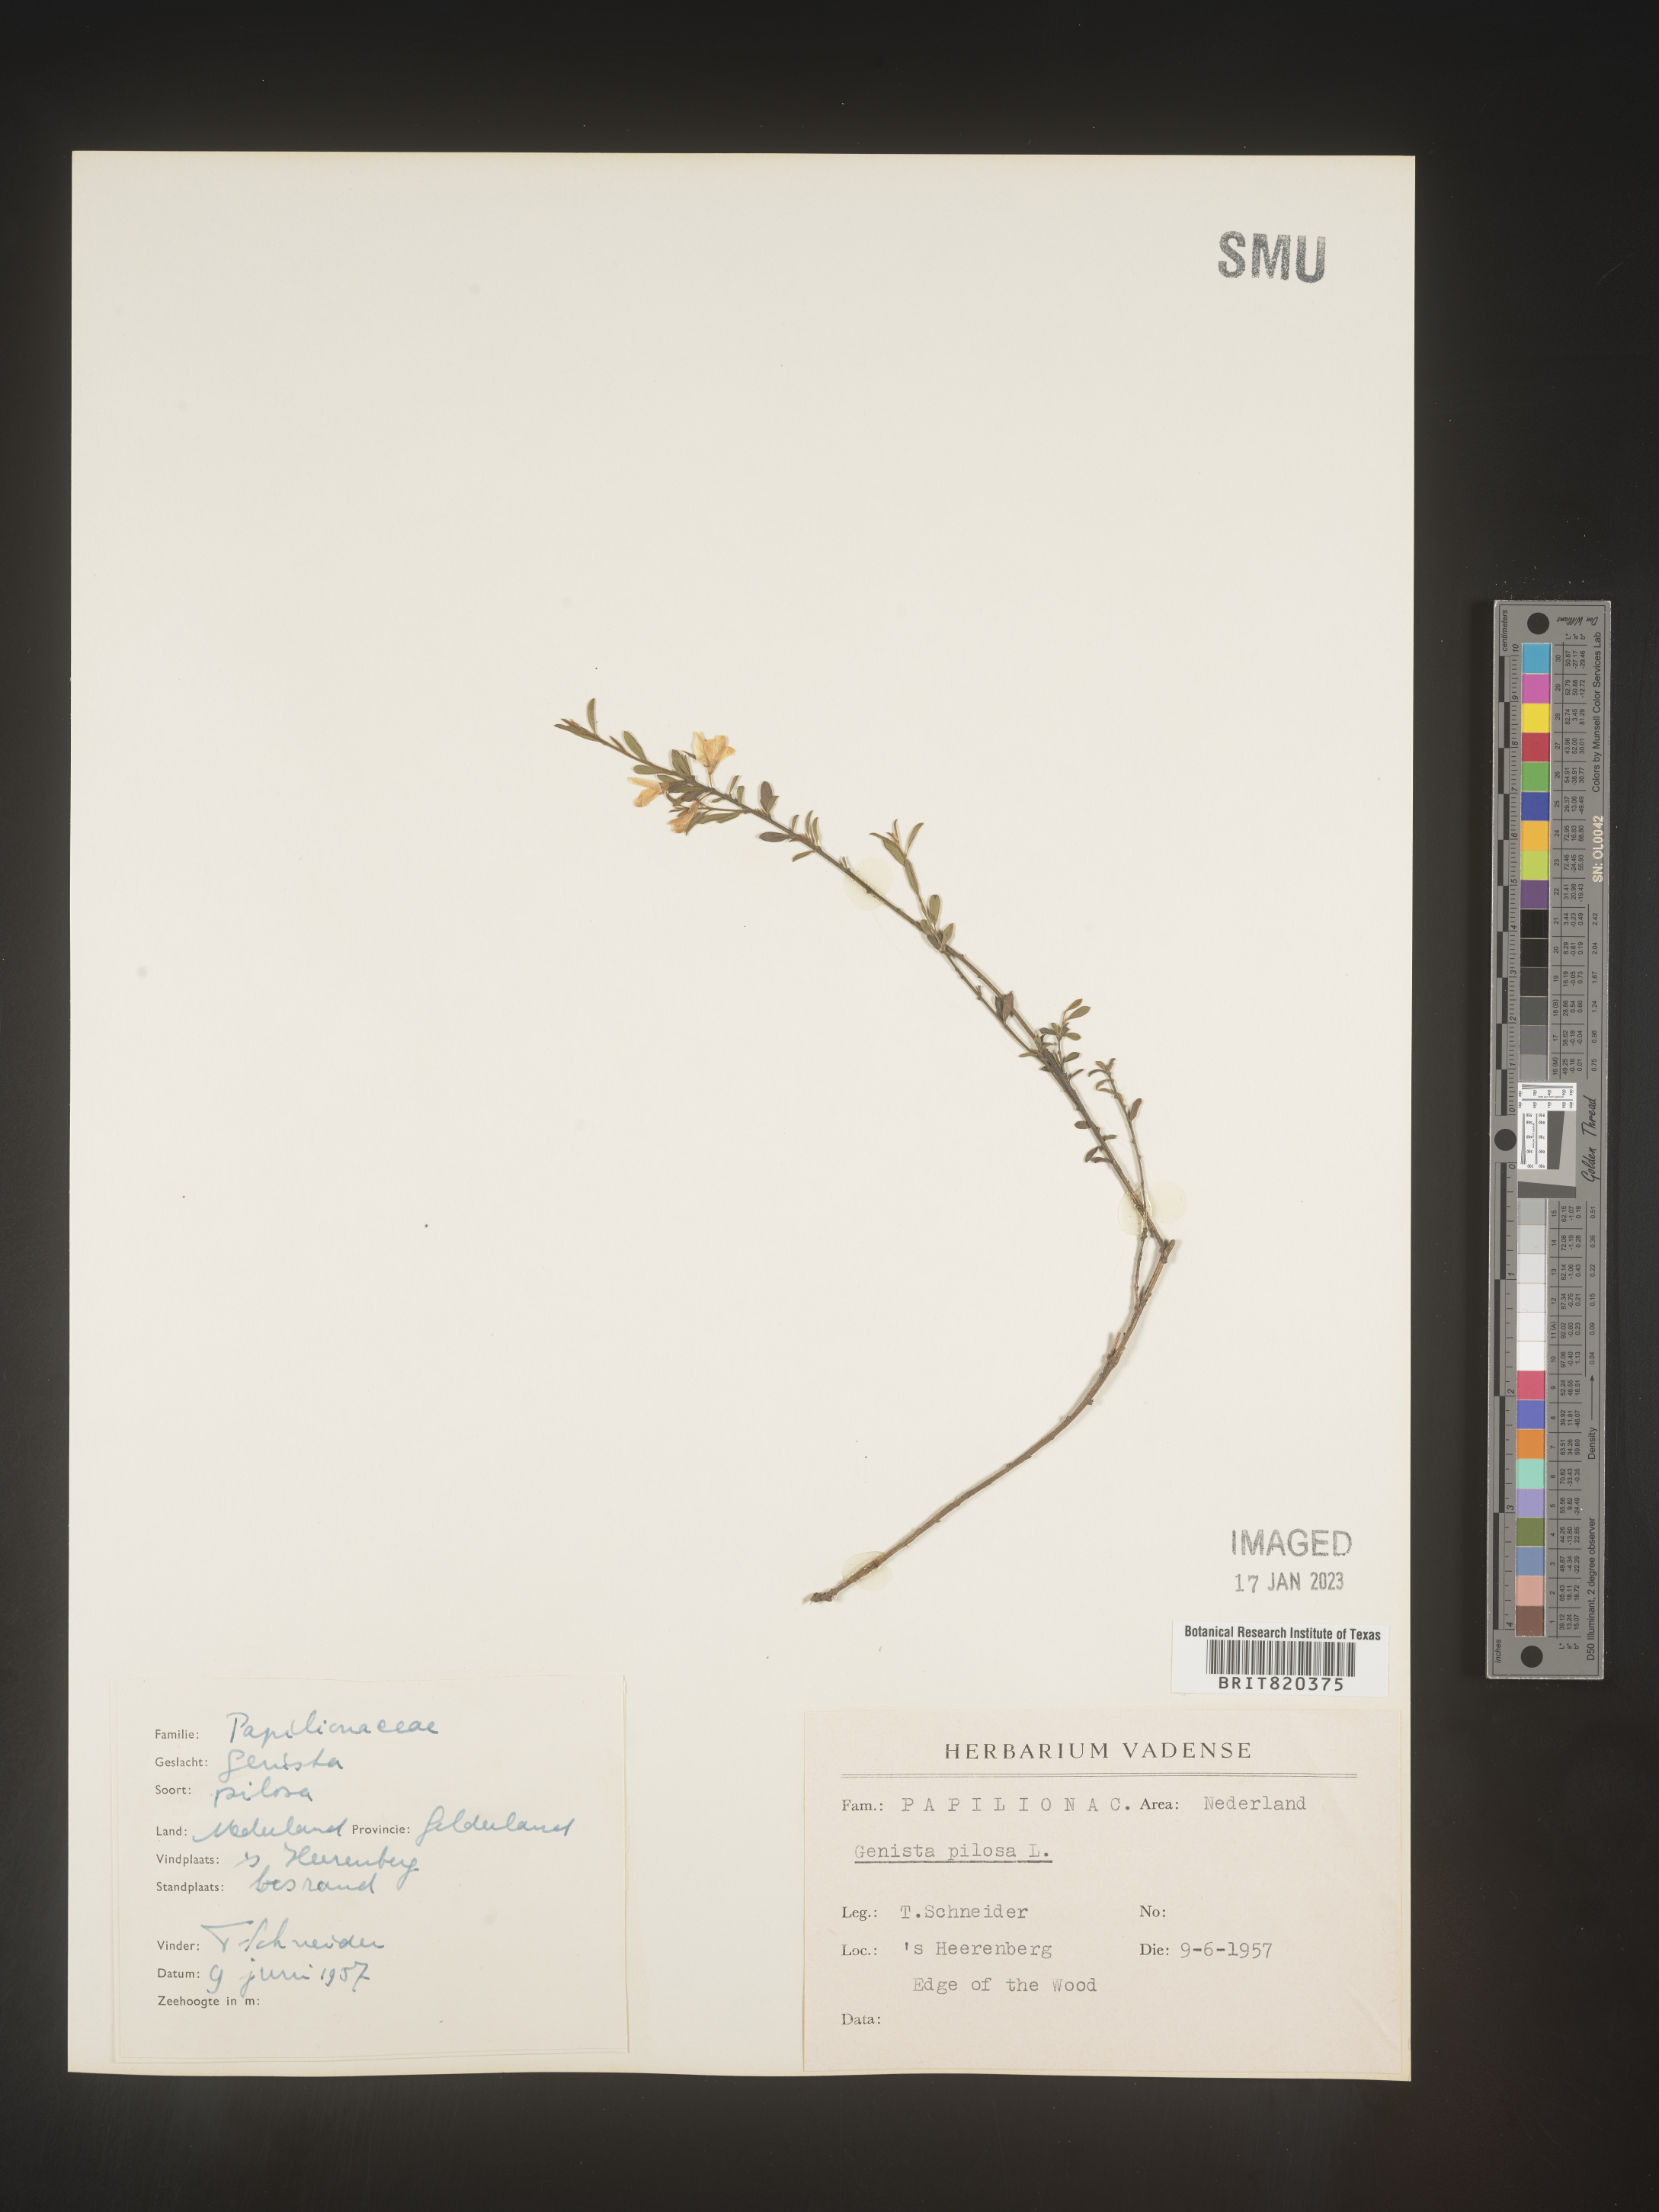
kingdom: Plantae
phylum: Tracheophyta
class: Magnoliopsida
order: Fabales
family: Fabaceae
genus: Genista
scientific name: Genista
